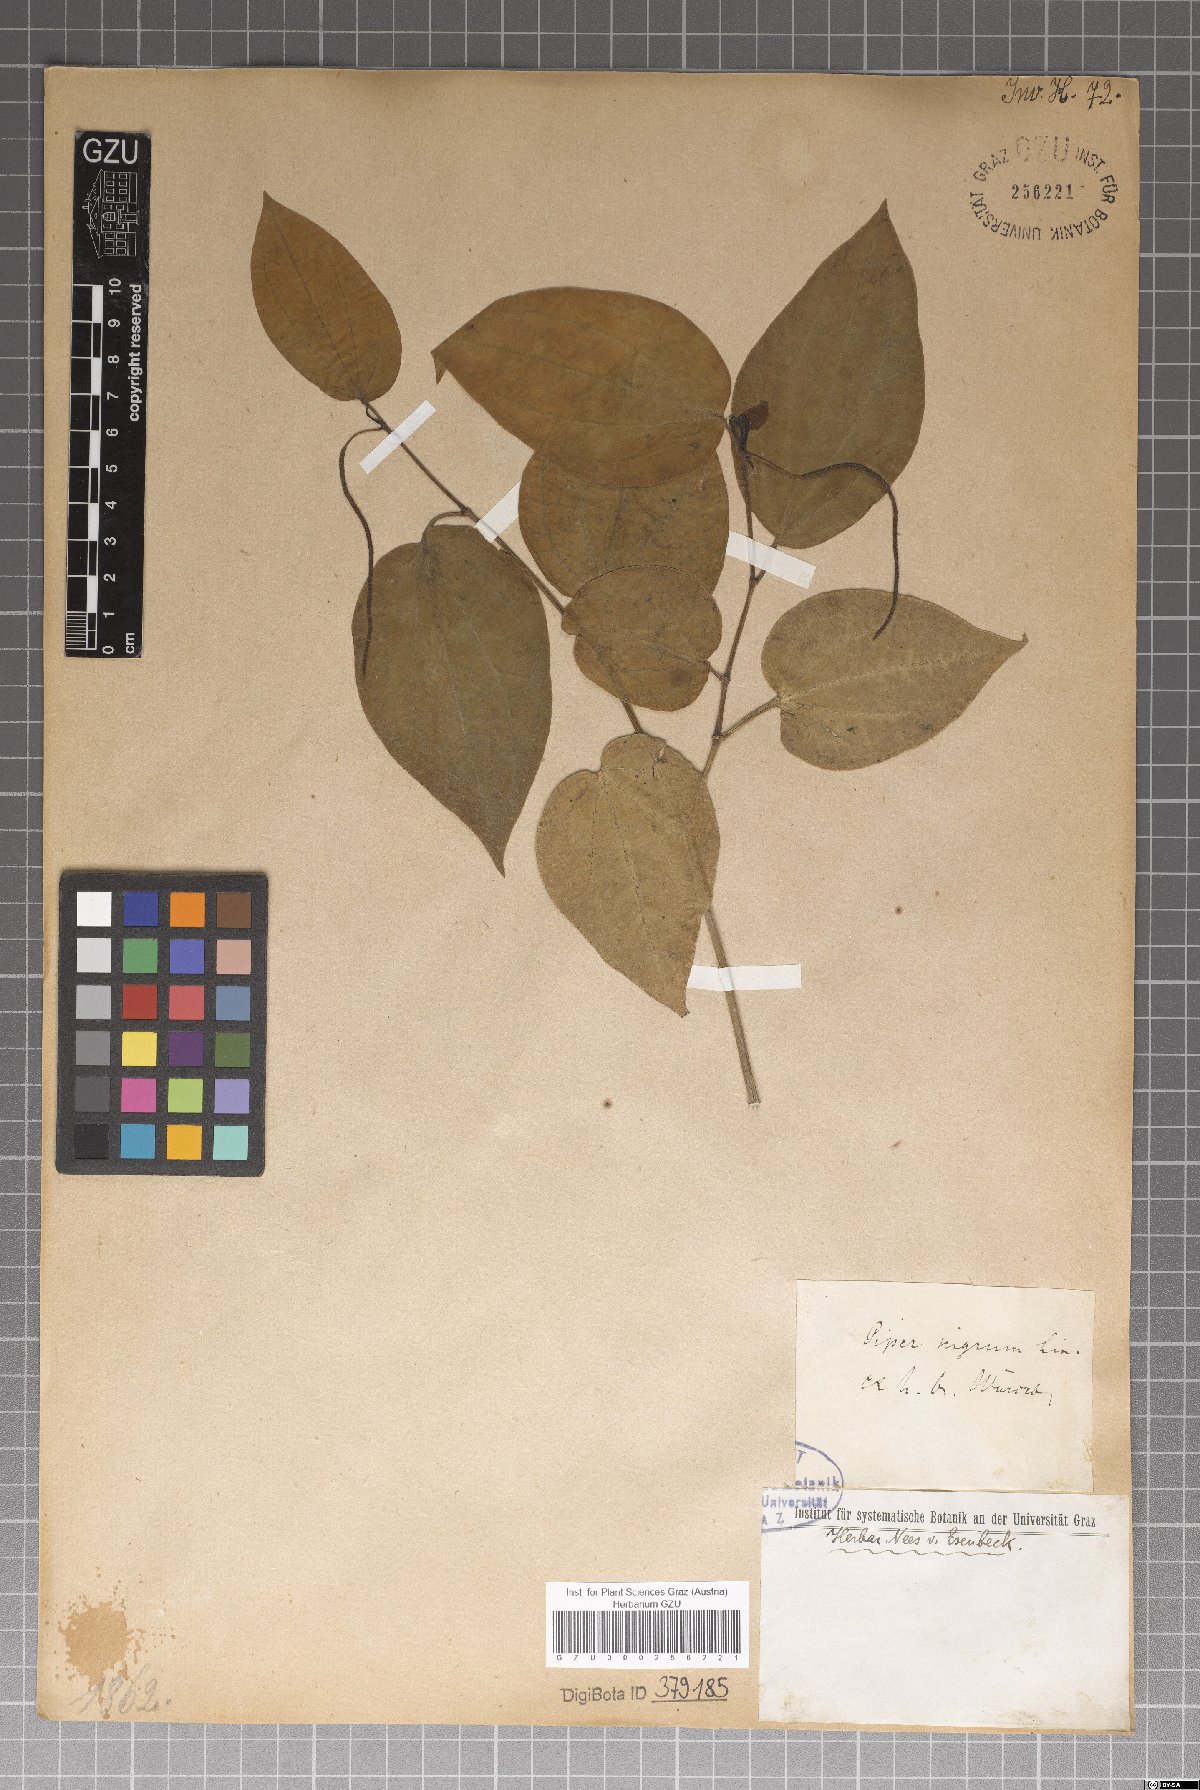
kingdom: Plantae
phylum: Tracheophyta
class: Magnoliopsida
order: Piperales
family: Piperaceae
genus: Piper
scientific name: Piper nigrum
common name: Black pepper
